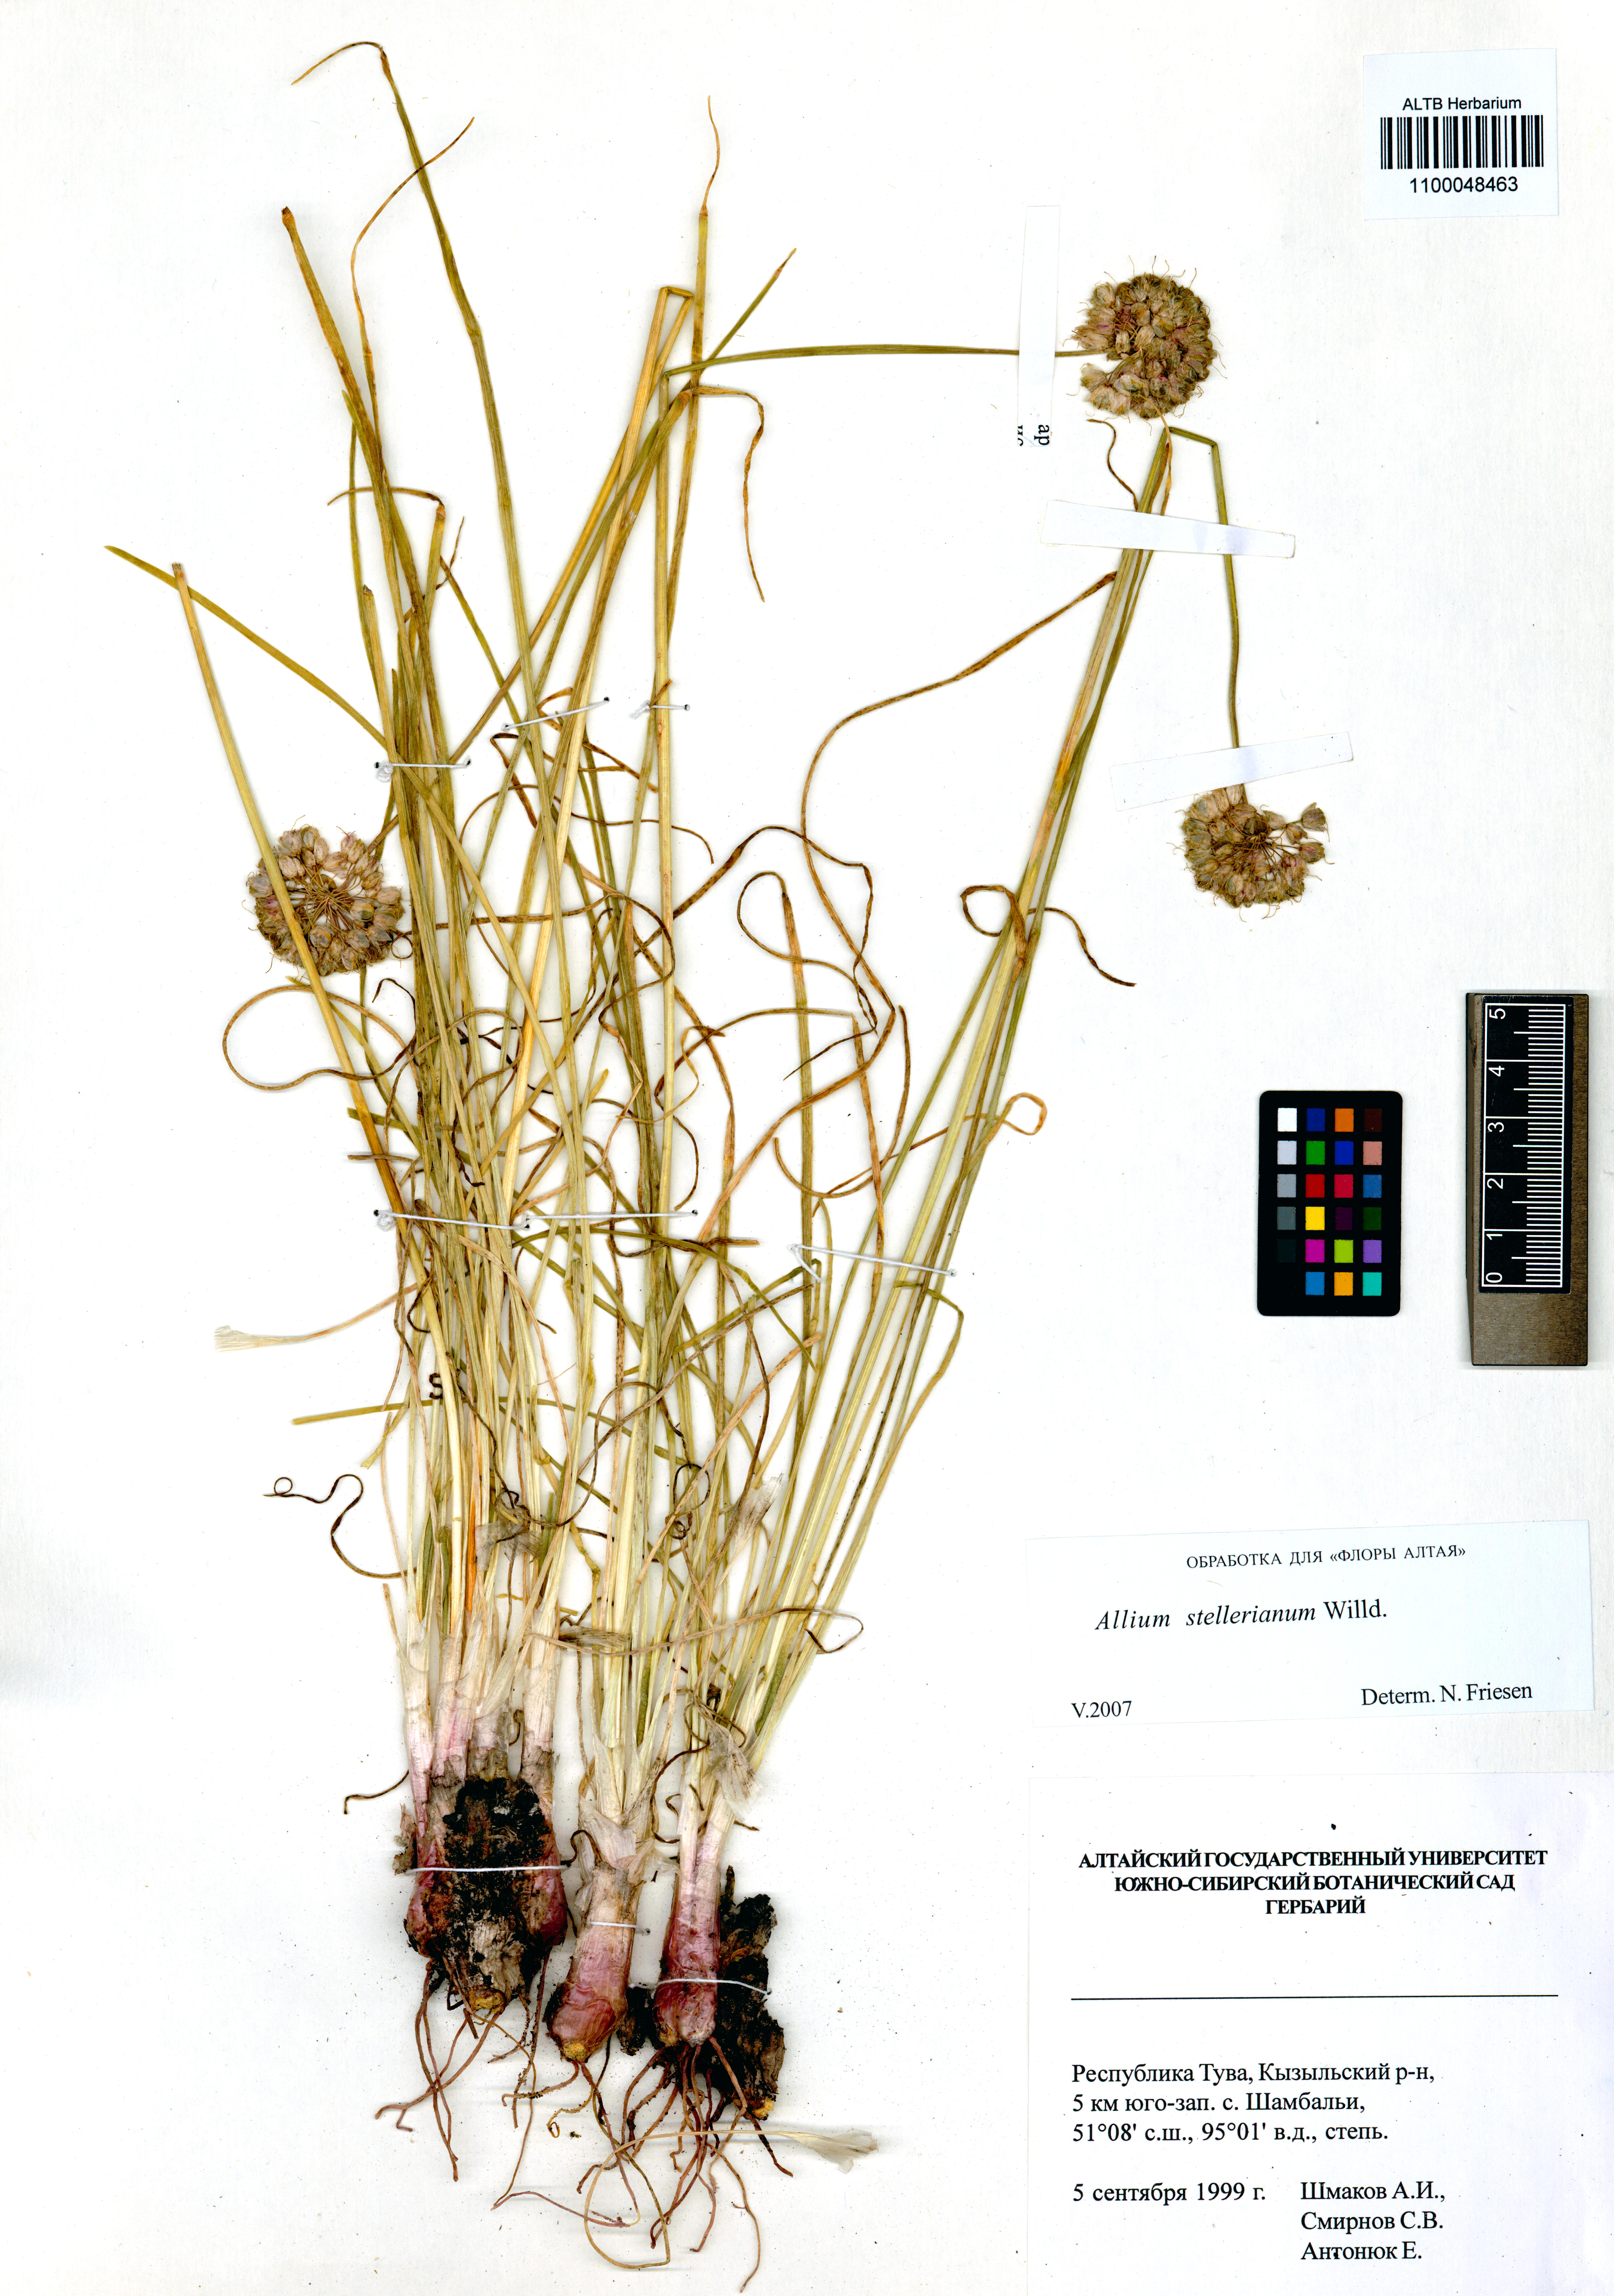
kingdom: Plantae
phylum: Tracheophyta
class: Liliopsida
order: Asparagales
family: Amaryllidaceae
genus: Allium
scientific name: Allium stellerianum
